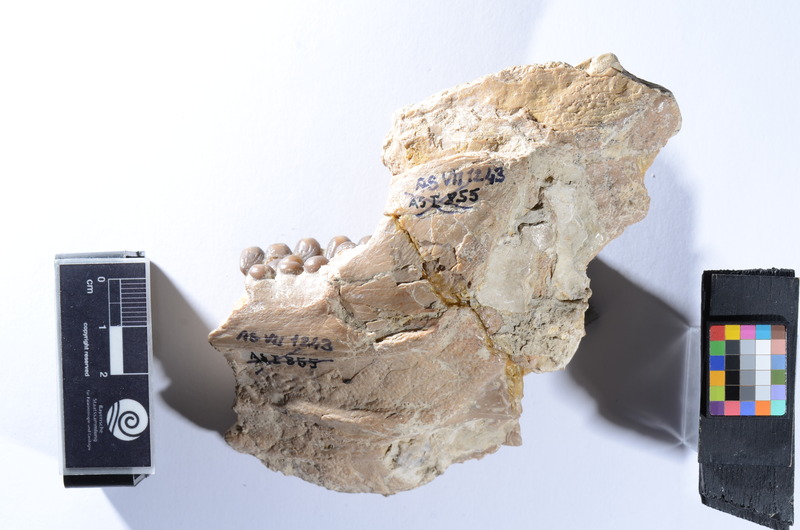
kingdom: Animalia
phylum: Chordata
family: Gyrodontidae
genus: Gyrodus
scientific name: Gyrodus circularis
